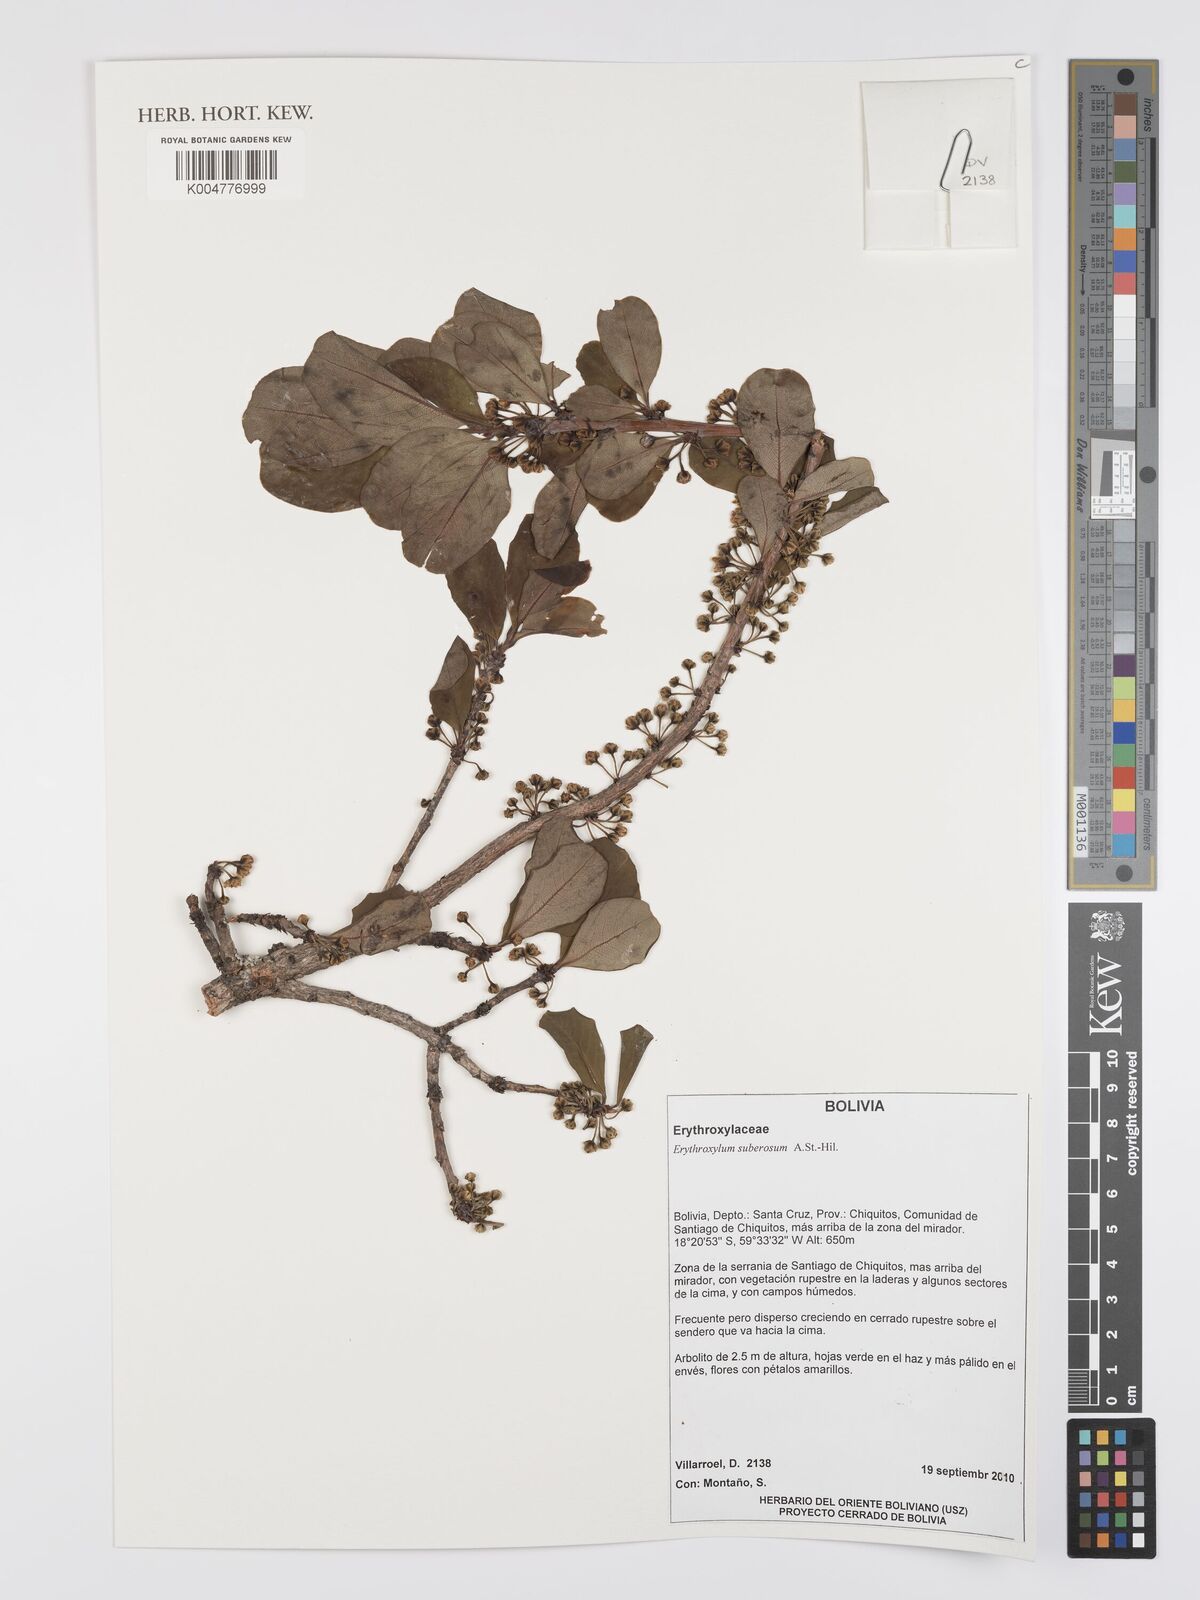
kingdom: Plantae
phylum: Tracheophyta
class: Magnoliopsida
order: Malpighiales
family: Erythroxylaceae
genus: Erythroxylum
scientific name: Erythroxylum suberosum
